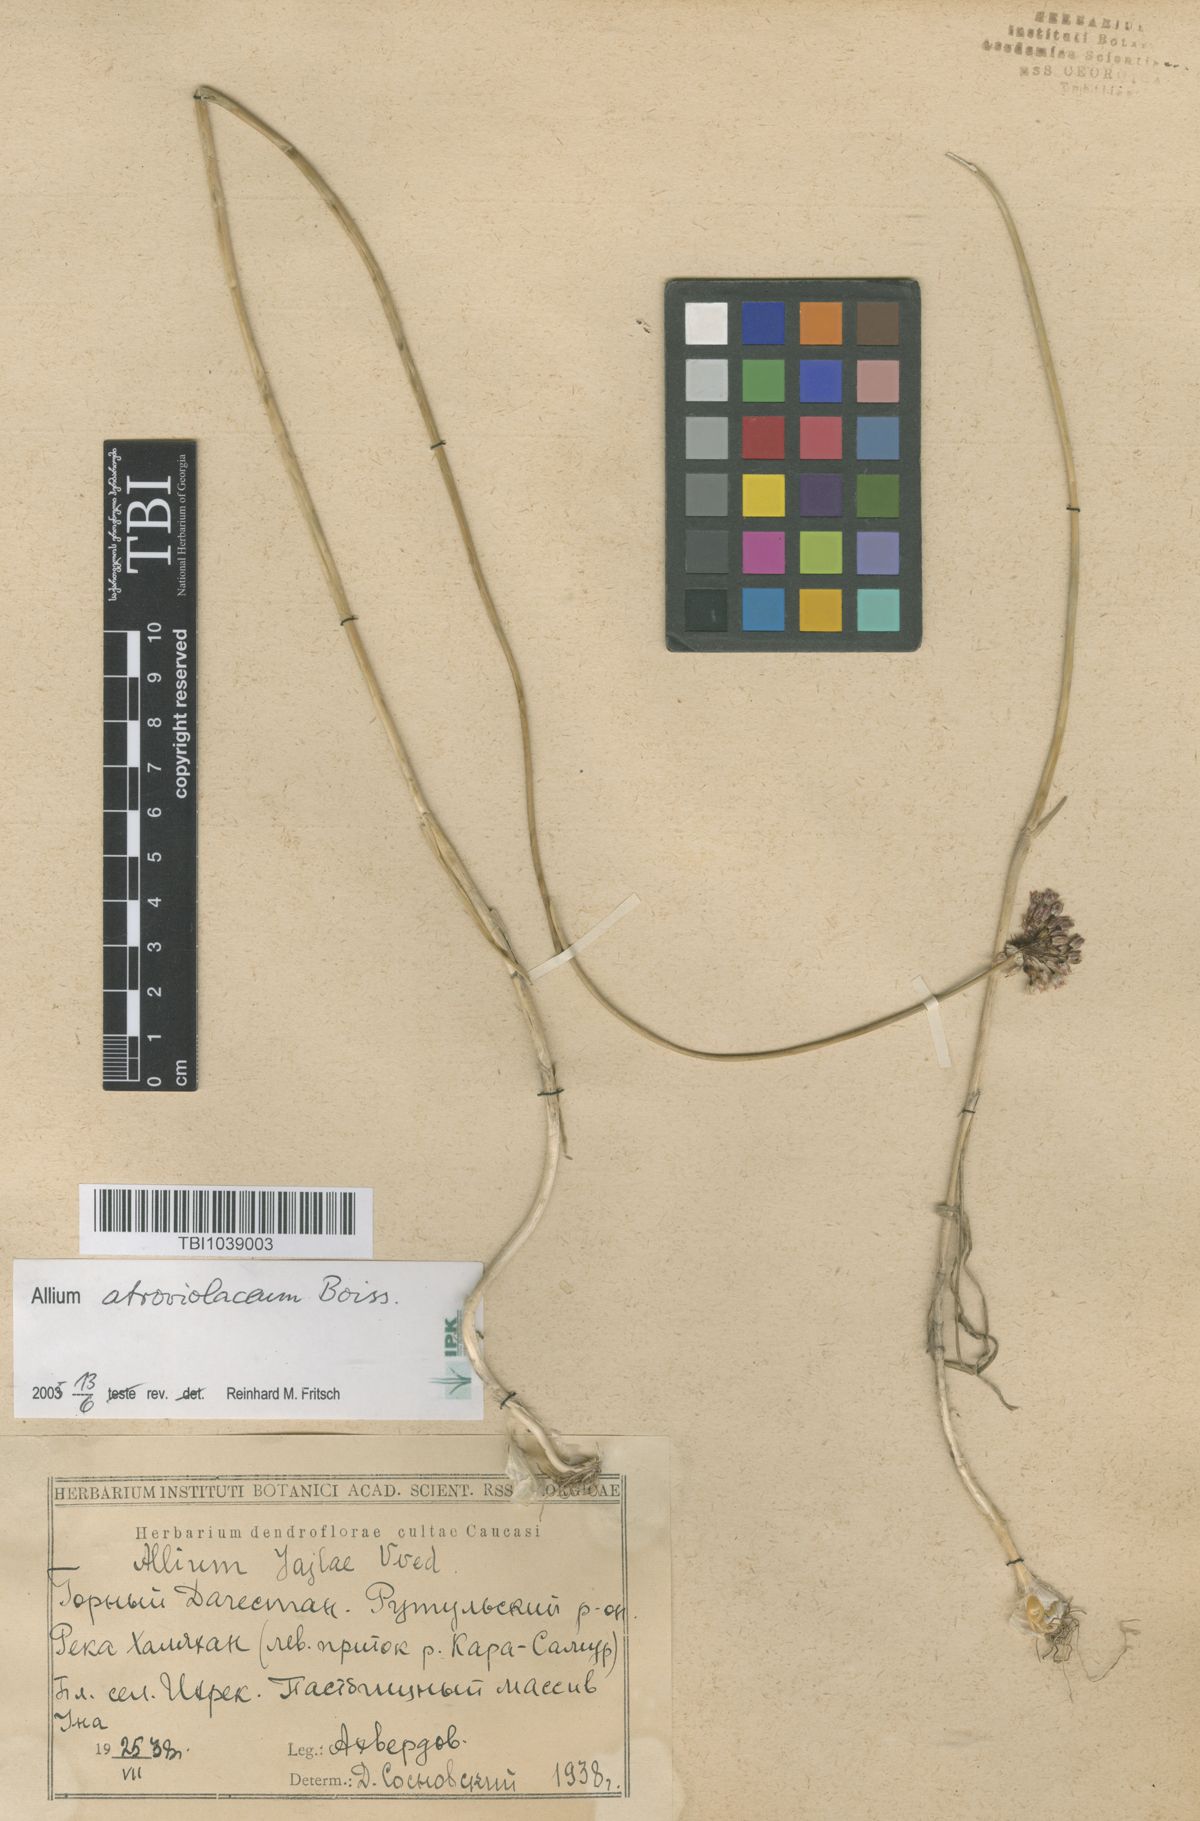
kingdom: Plantae
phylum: Tracheophyta
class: Liliopsida
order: Asparagales
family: Amaryllidaceae
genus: Allium
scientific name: Allium rotundum
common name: Sand leek
